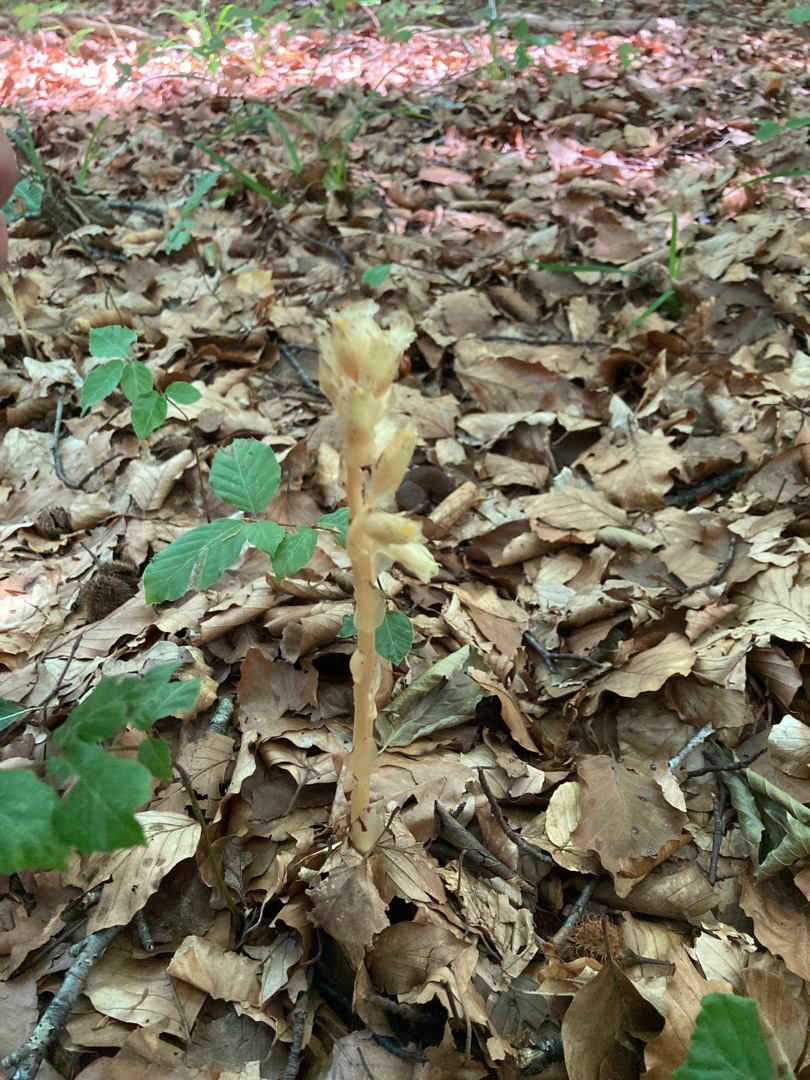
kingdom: Plantae
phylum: Tracheophyta
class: Magnoliopsida
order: Ericales
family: Ericaceae
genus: Hypopitys
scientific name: Hypopitys monotropa
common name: Snylterod
